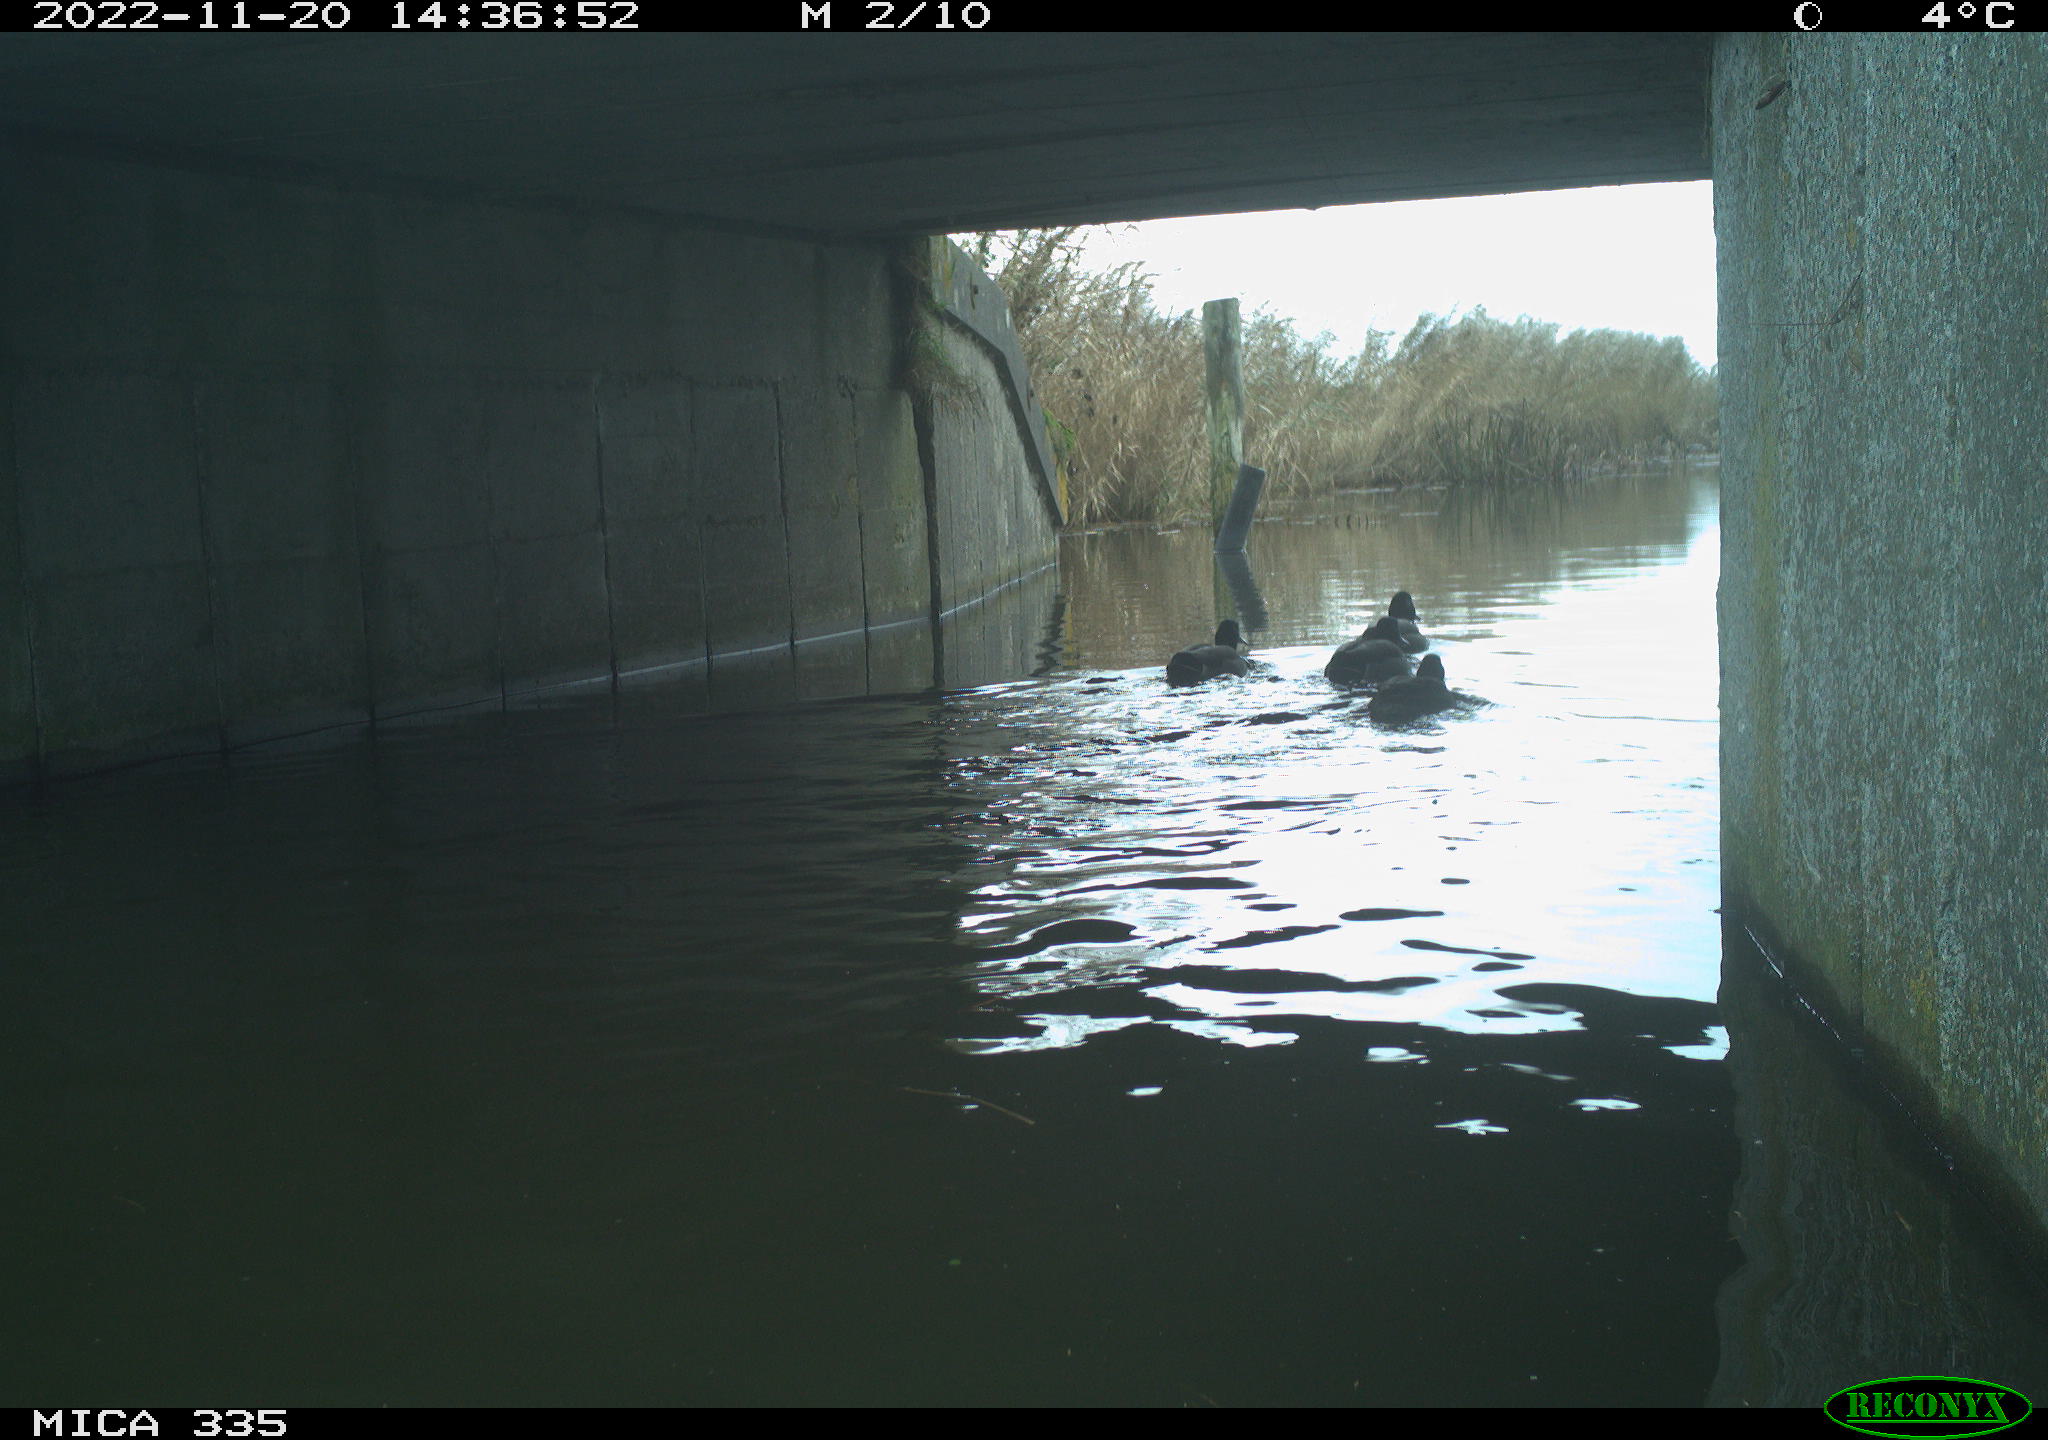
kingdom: Animalia
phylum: Chordata
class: Aves
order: Anseriformes
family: Anatidae
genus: Anas
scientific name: Anas
